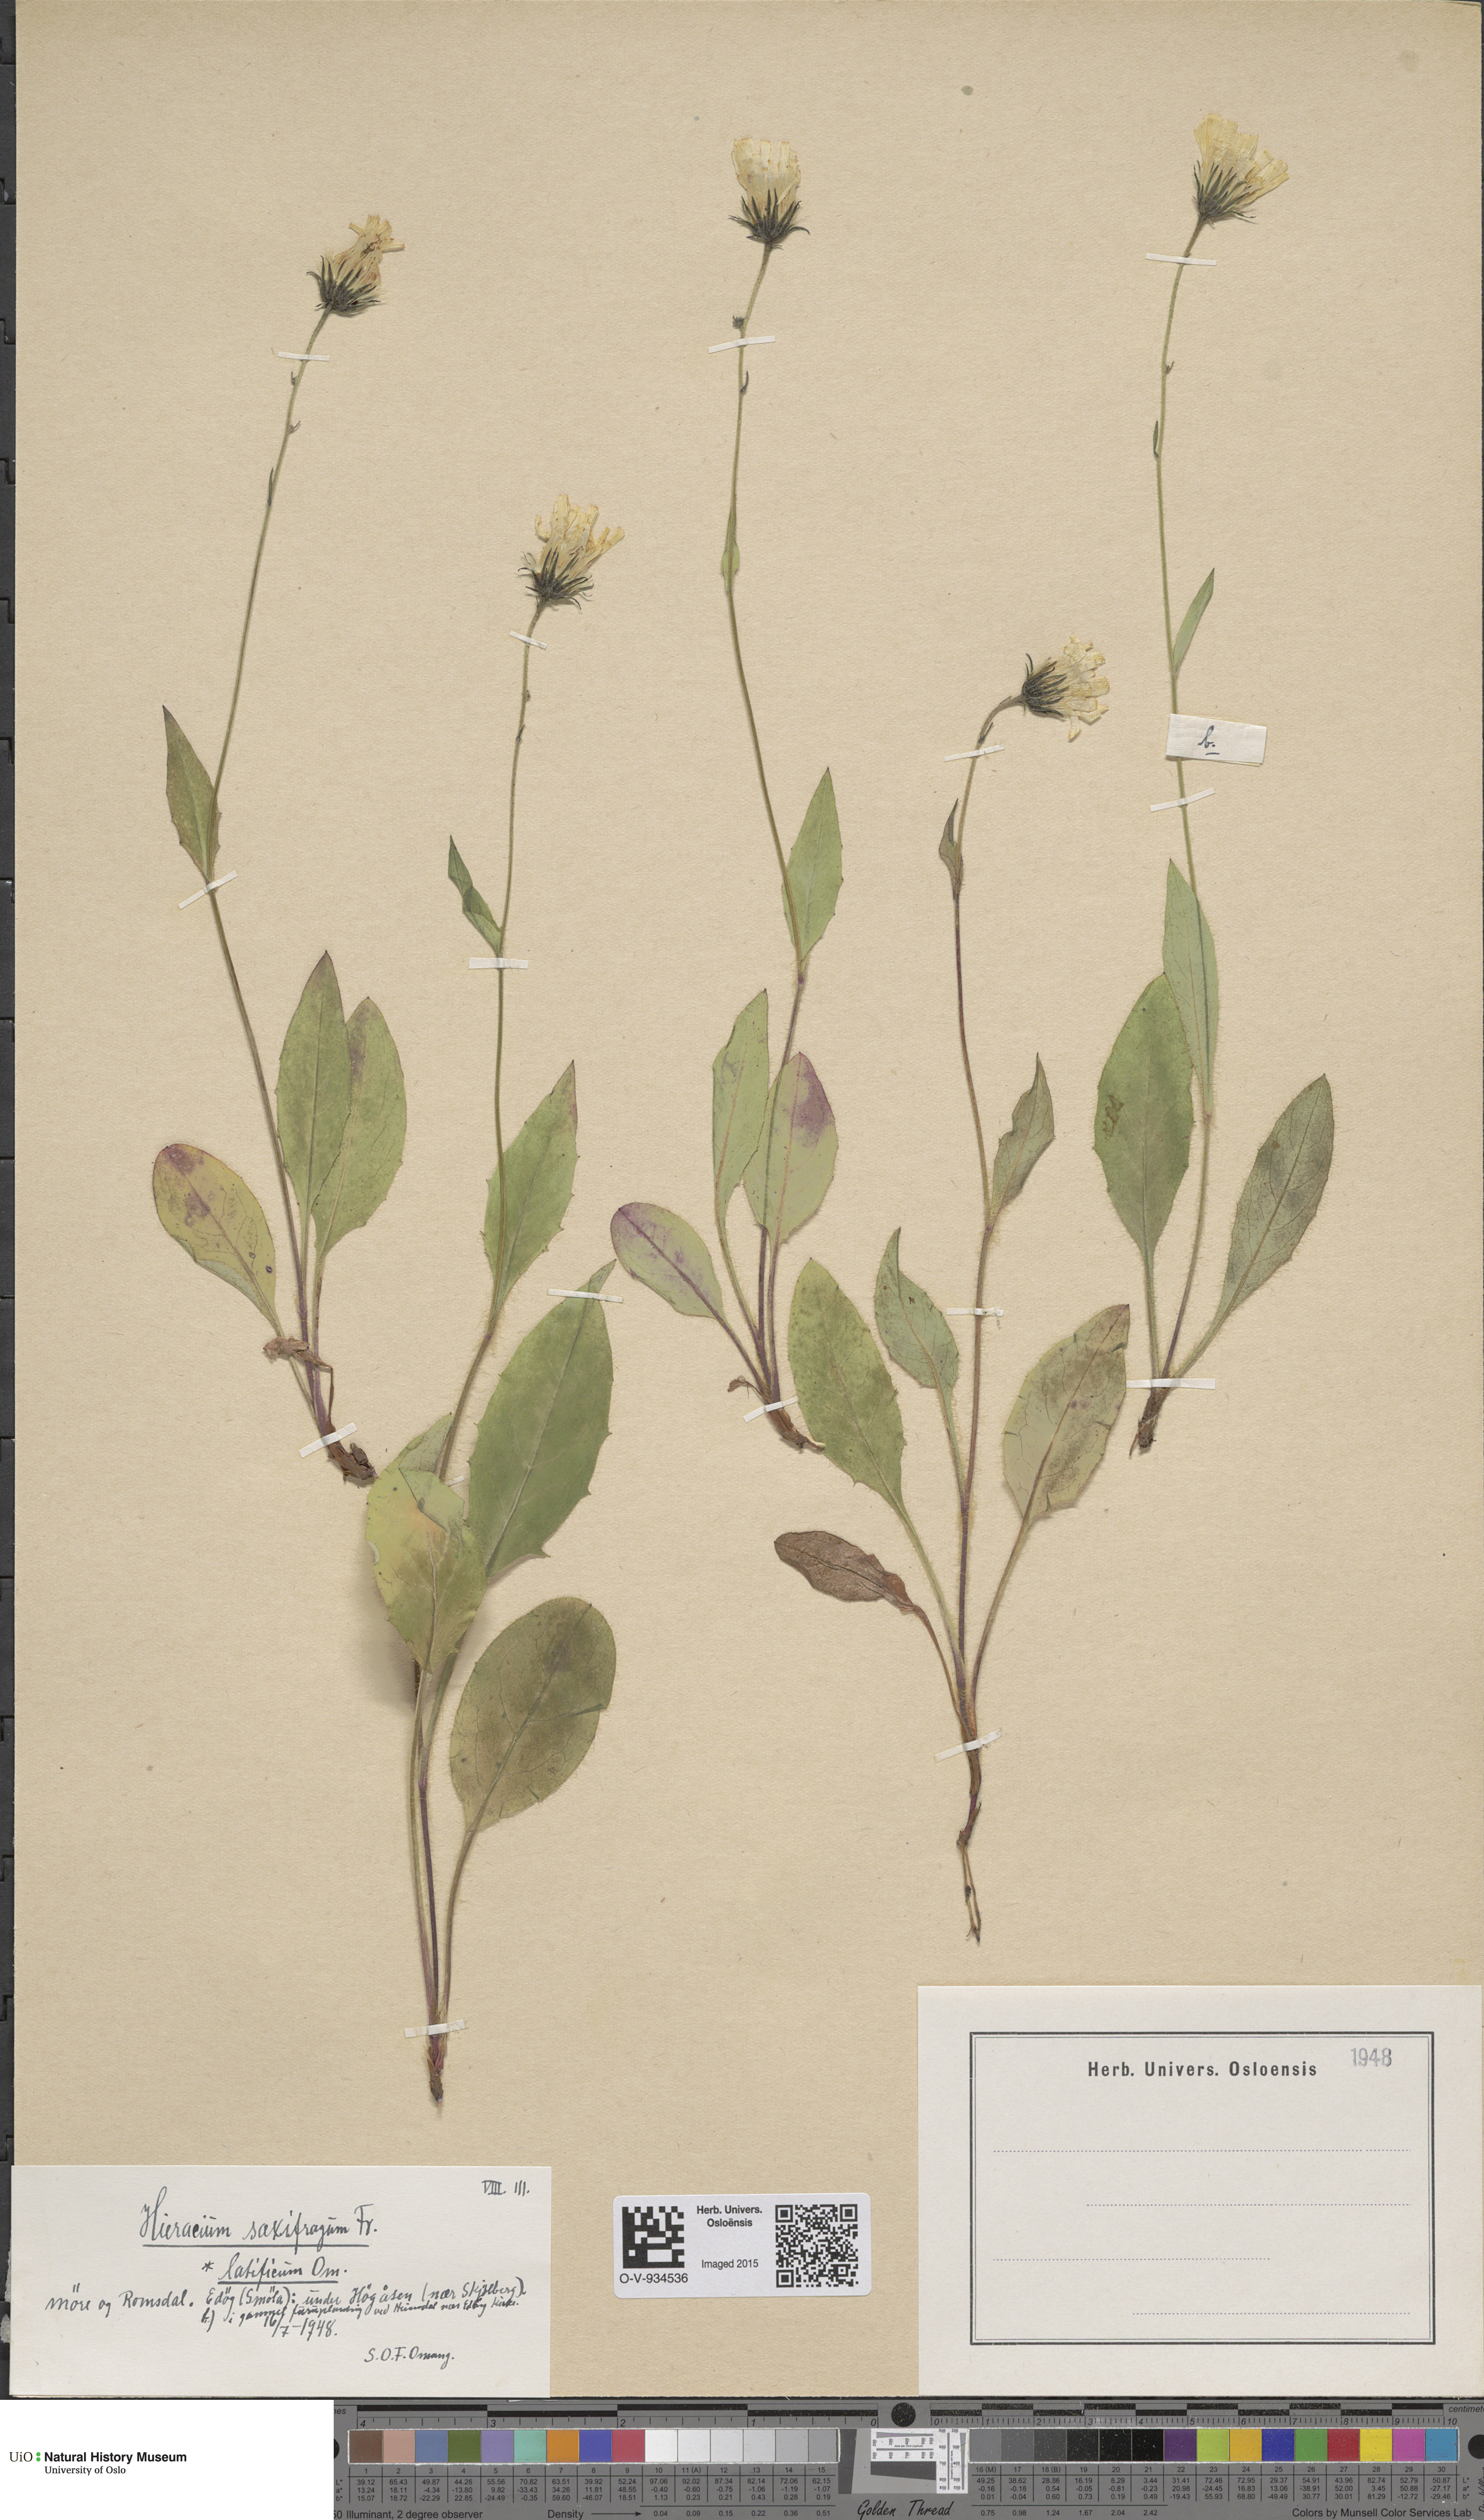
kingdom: Plantae
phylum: Tracheophyta
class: Magnoliopsida
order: Asterales
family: Asteraceae
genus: Hieracium
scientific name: Hieracium saxifragum
